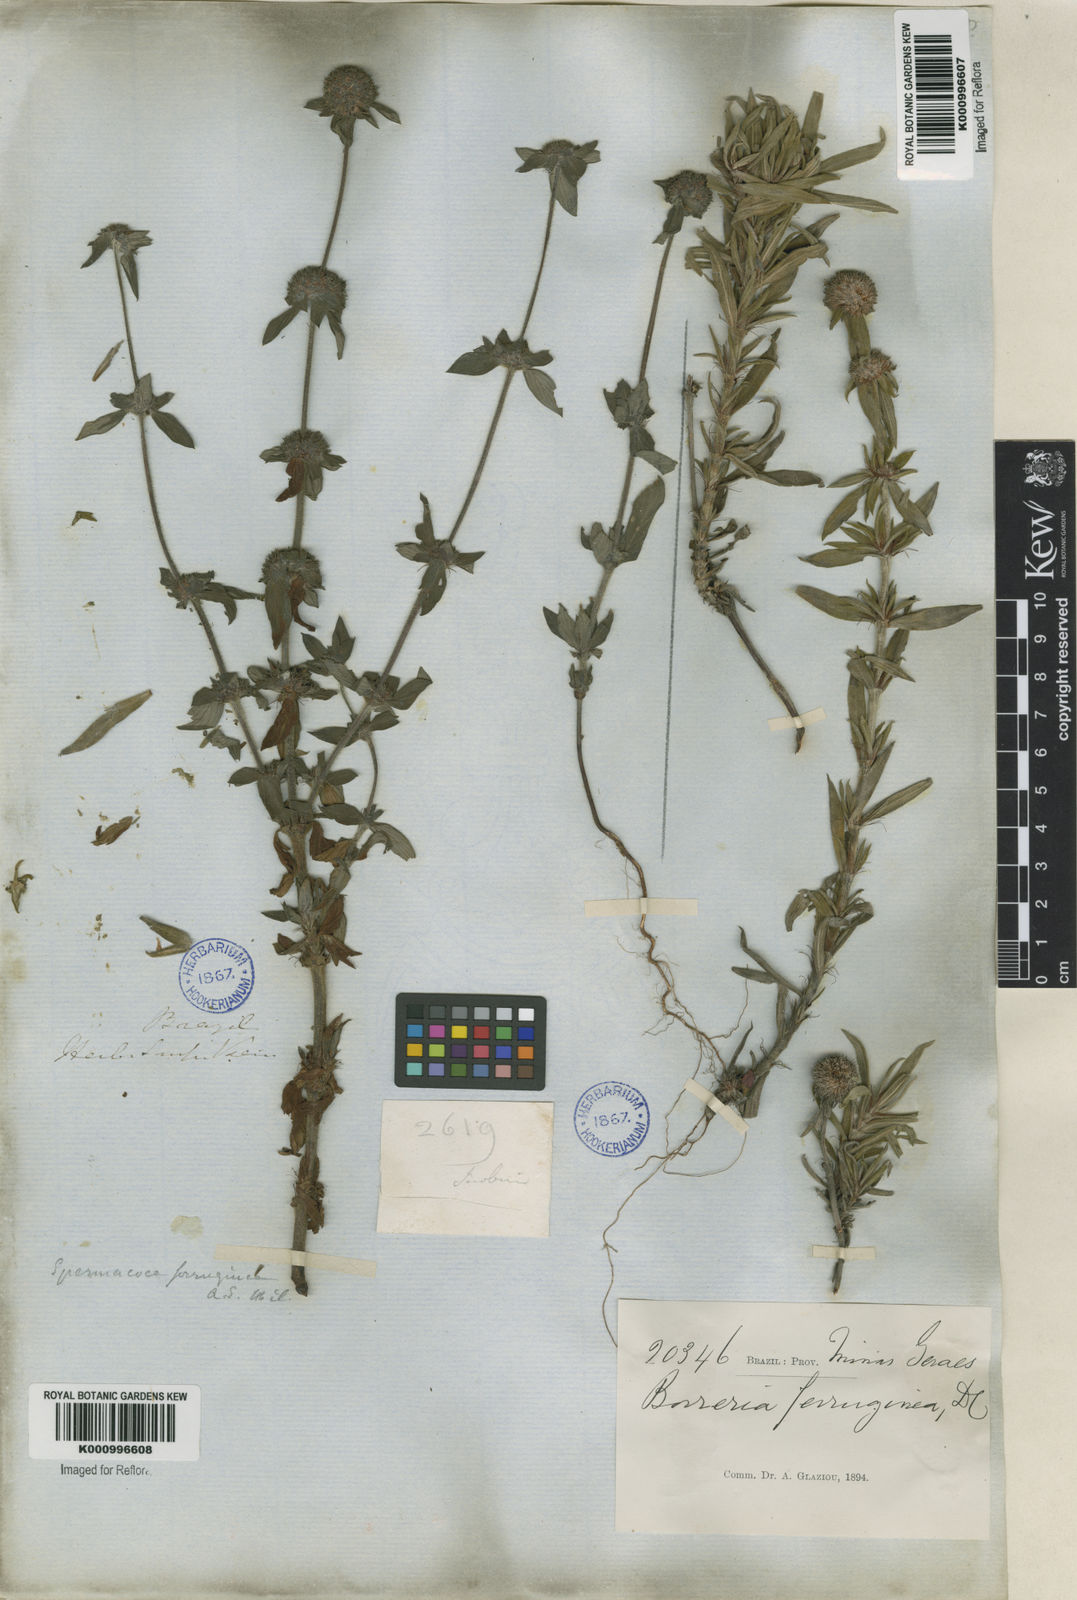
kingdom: Plantae
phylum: Tracheophyta
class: Magnoliopsida
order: Gentianales
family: Rubiaceae
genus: Spermacoce
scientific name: Spermacoce
